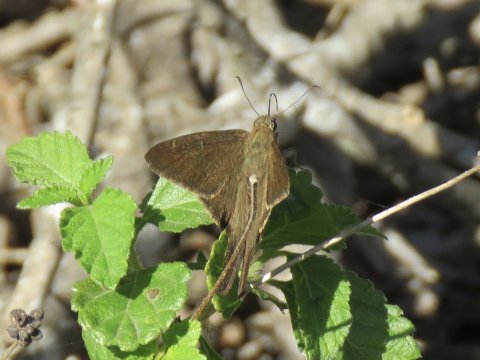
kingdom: Animalia
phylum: Arthropoda
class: Insecta
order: Lepidoptera
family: Hesperiidae
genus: Urbanus
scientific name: Urbanus procne
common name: Brown Longtail
